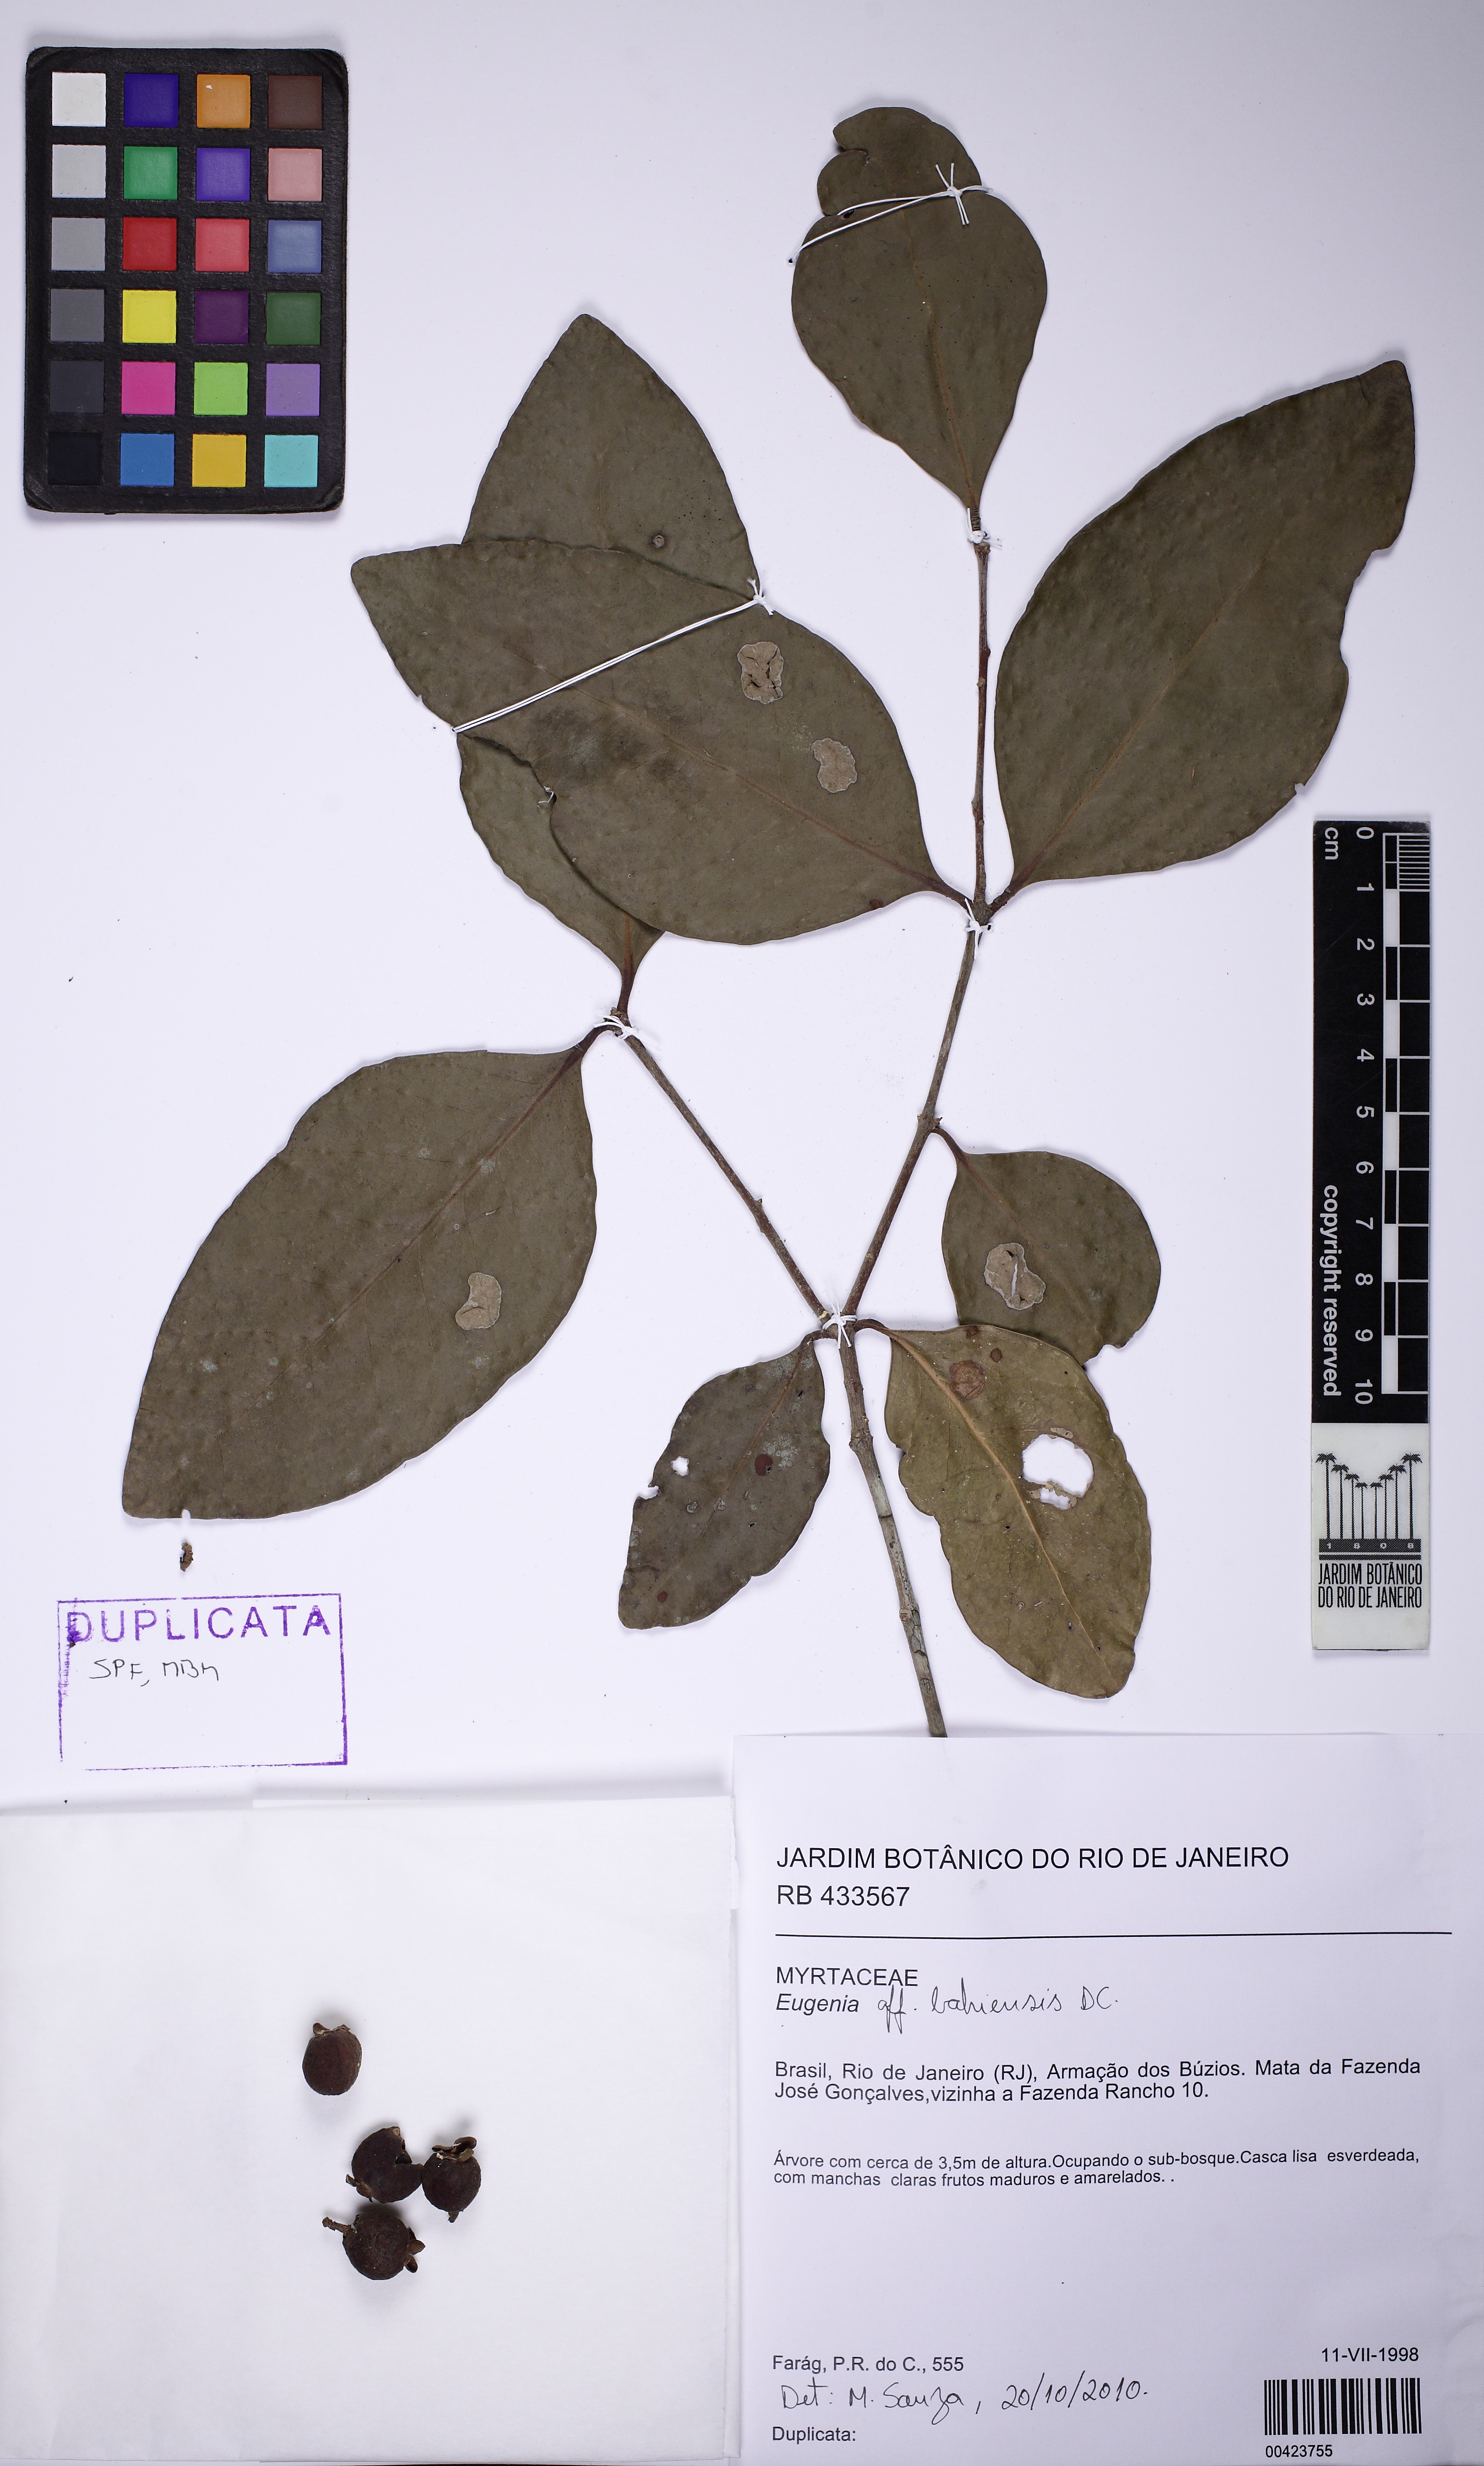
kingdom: Plantae
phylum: Tracheophyta
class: Magnoliopsida
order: Myrtales
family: Myrtaceae
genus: Eugenia
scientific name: Eugenia bahiensis
